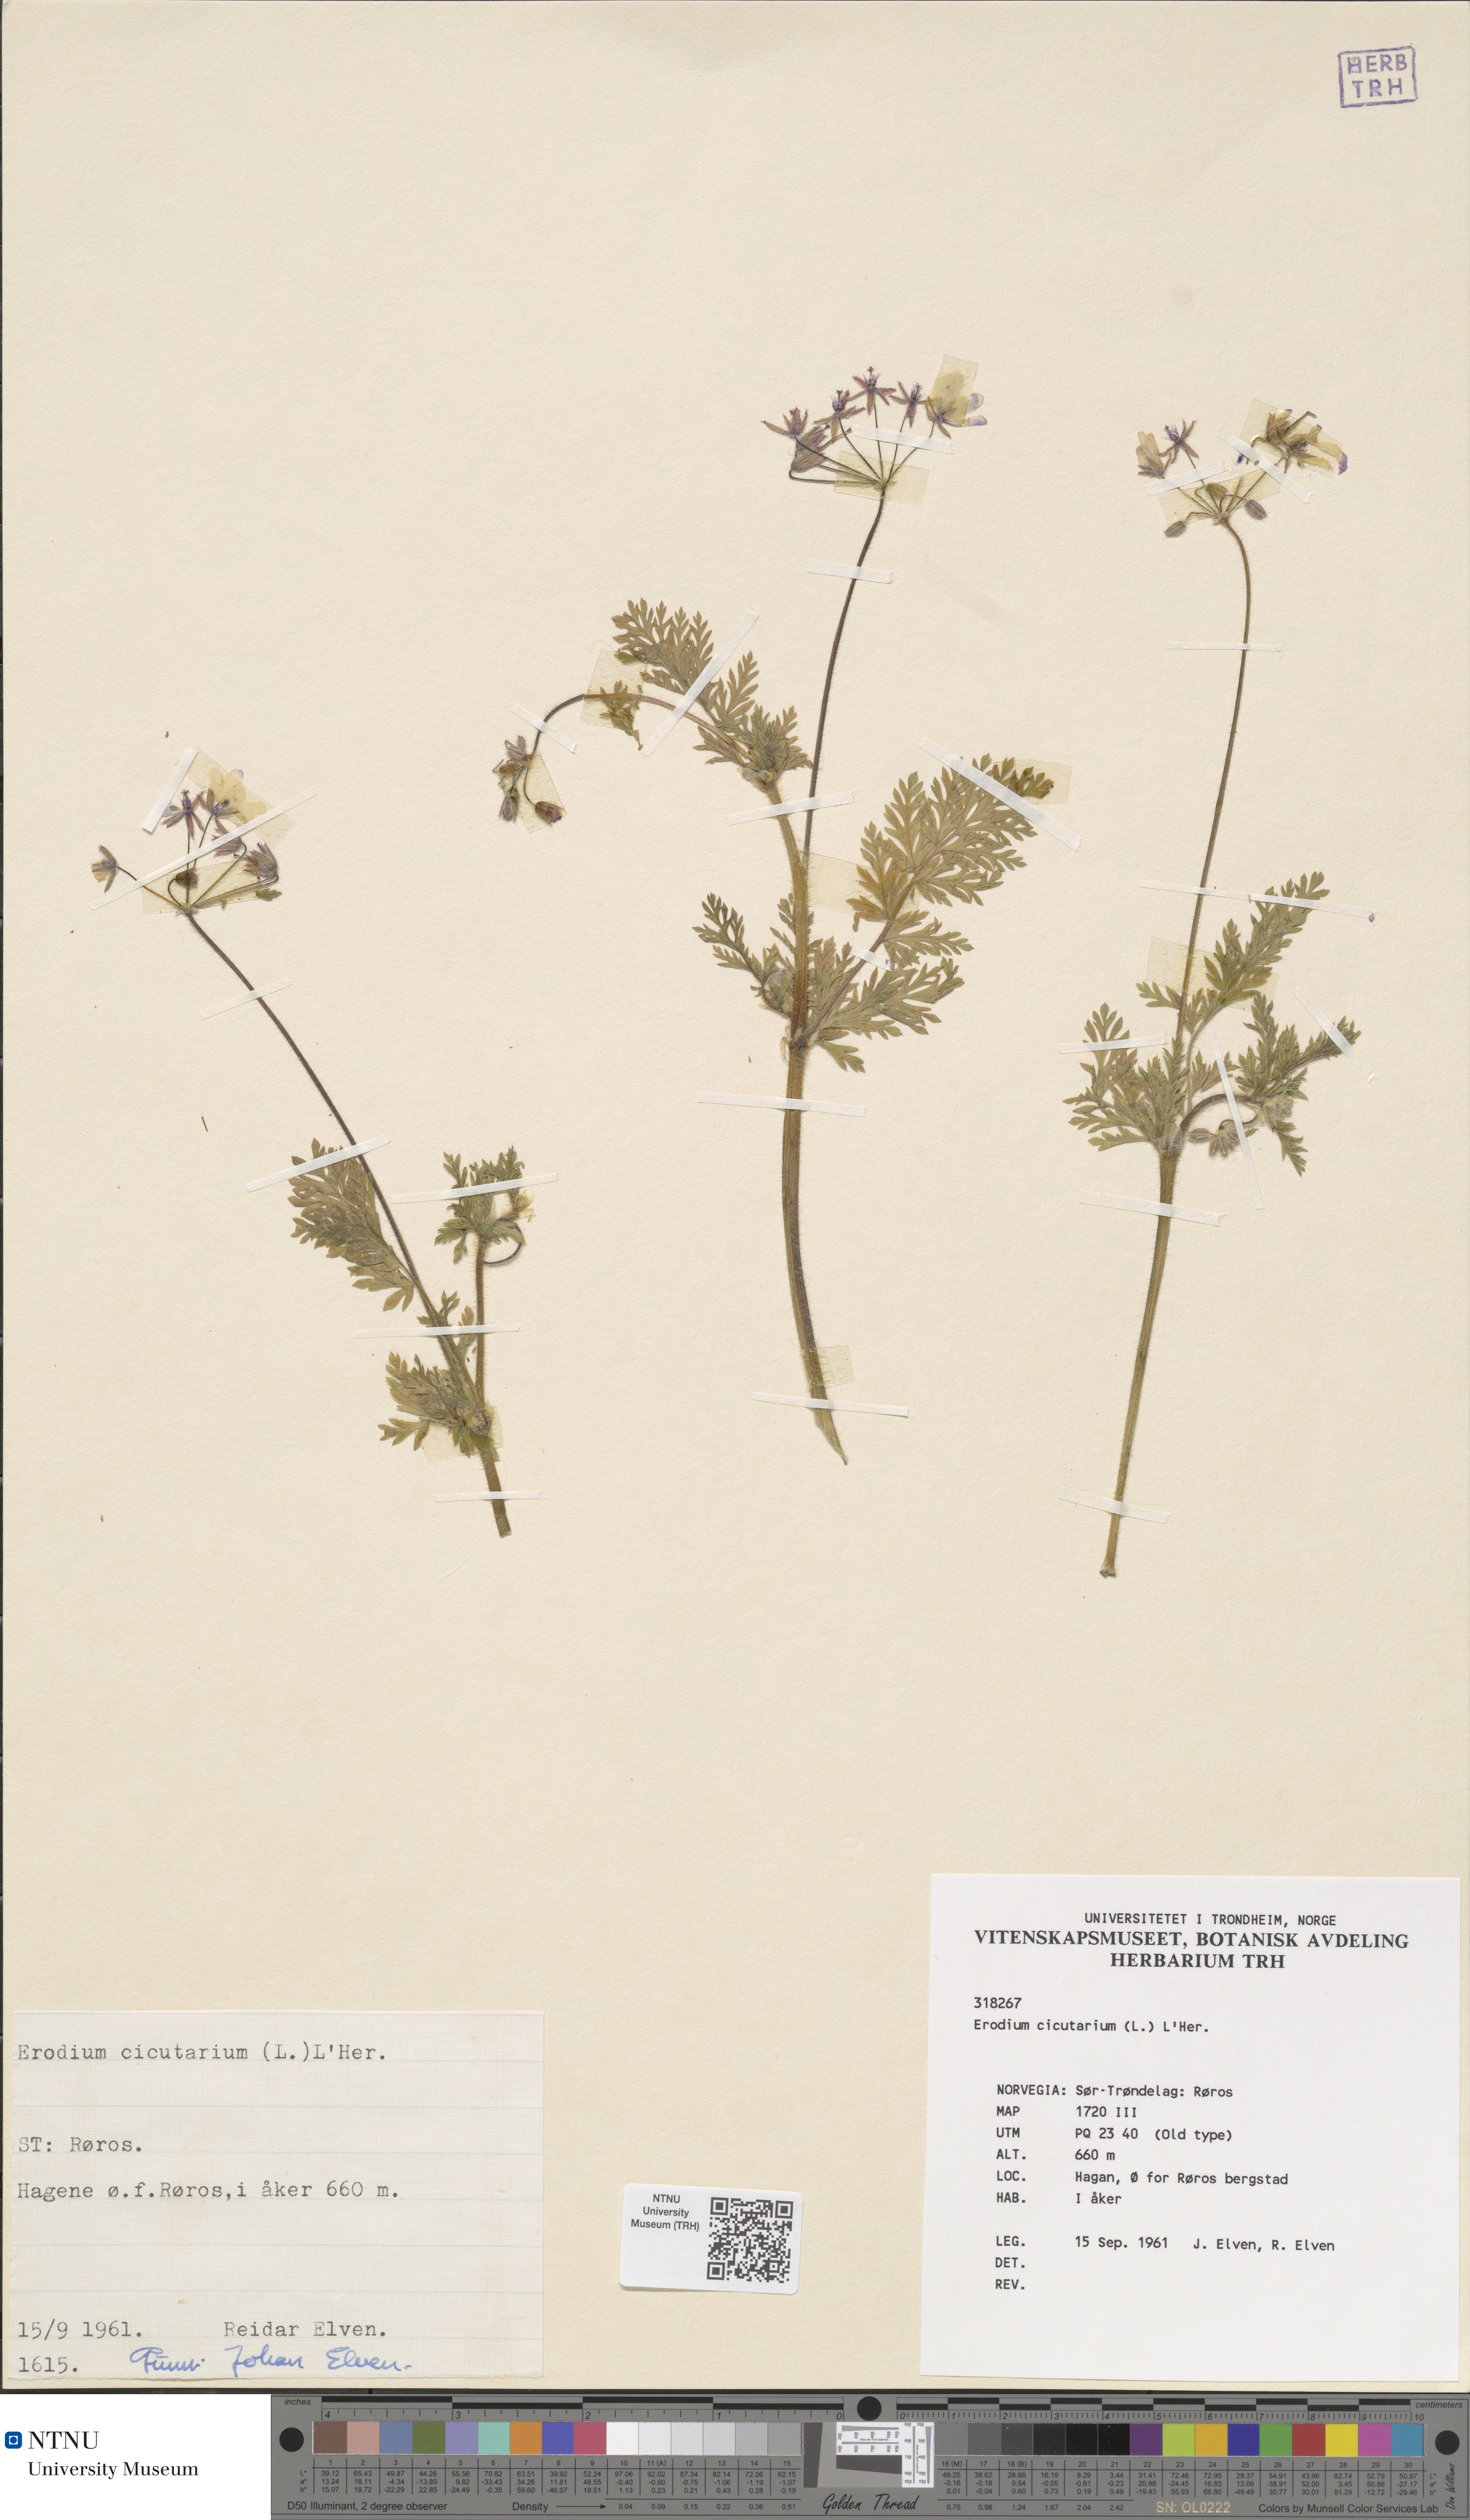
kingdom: Plantae
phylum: Tracheophyta
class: Magnoliopsida
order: Geraniales
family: Geraniaceae
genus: Erodium
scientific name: Erodium cicutarium
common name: Common stork's-bill
